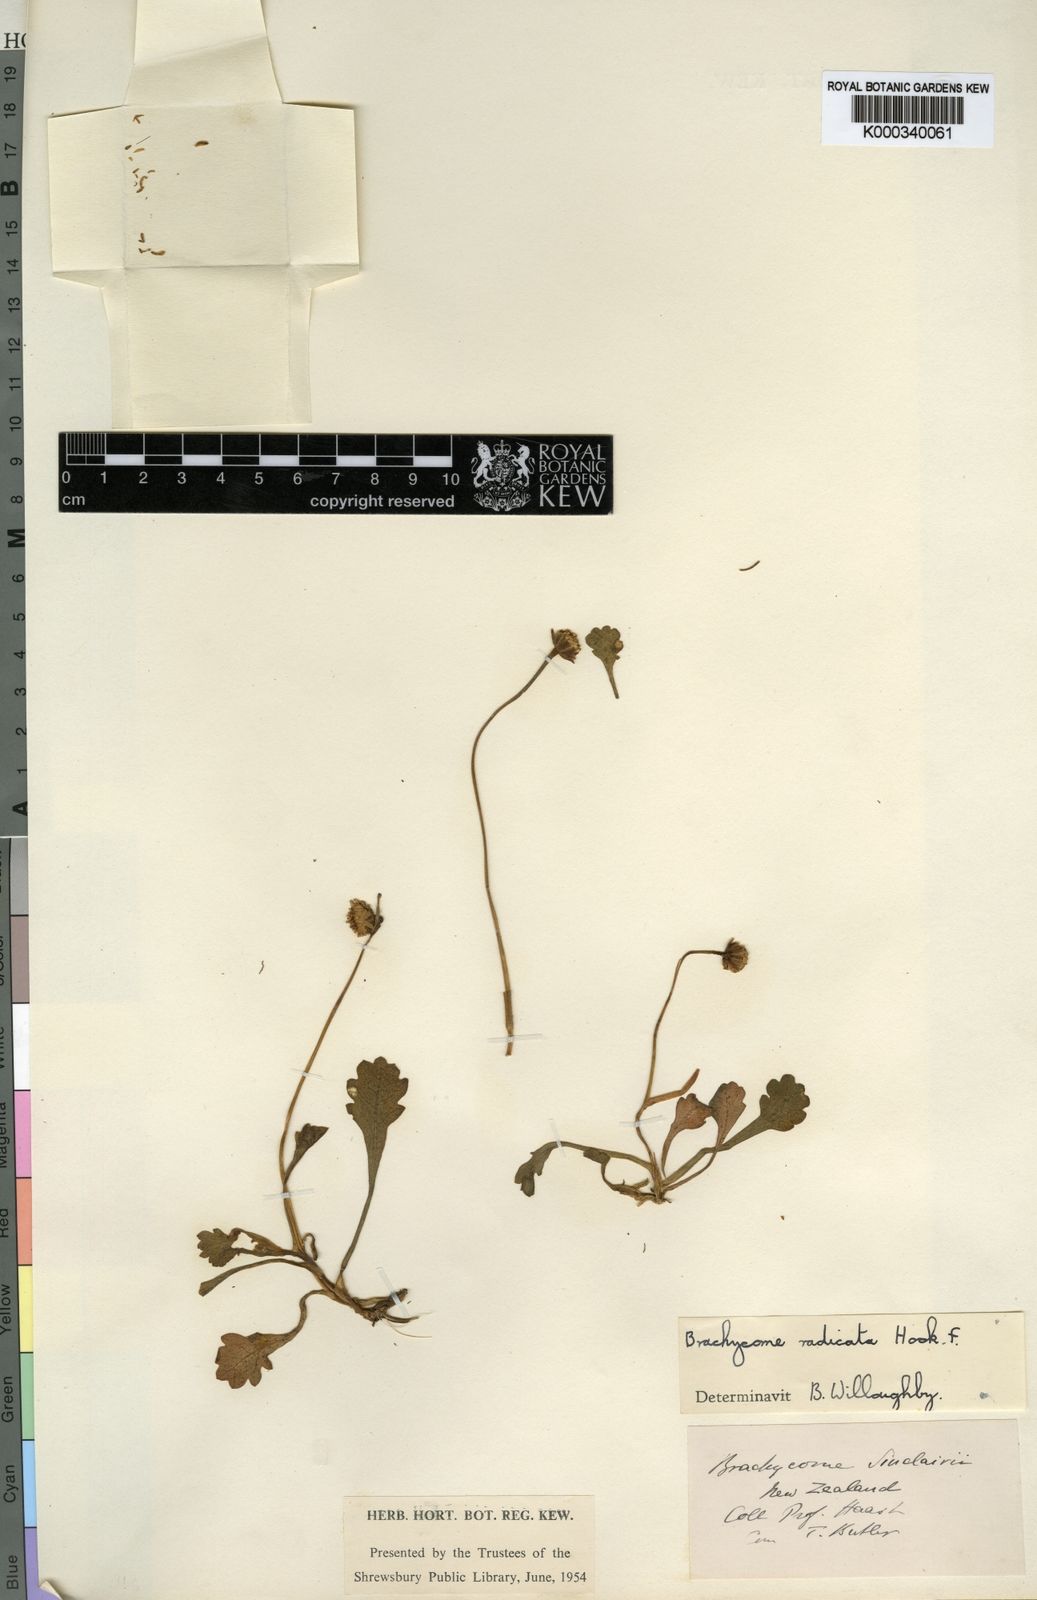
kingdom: Plantae
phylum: Tracheophyta
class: Magnoliopsida
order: Asterales
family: Asteraceae
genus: Brachyscome
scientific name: Brachyscome sinclairii
